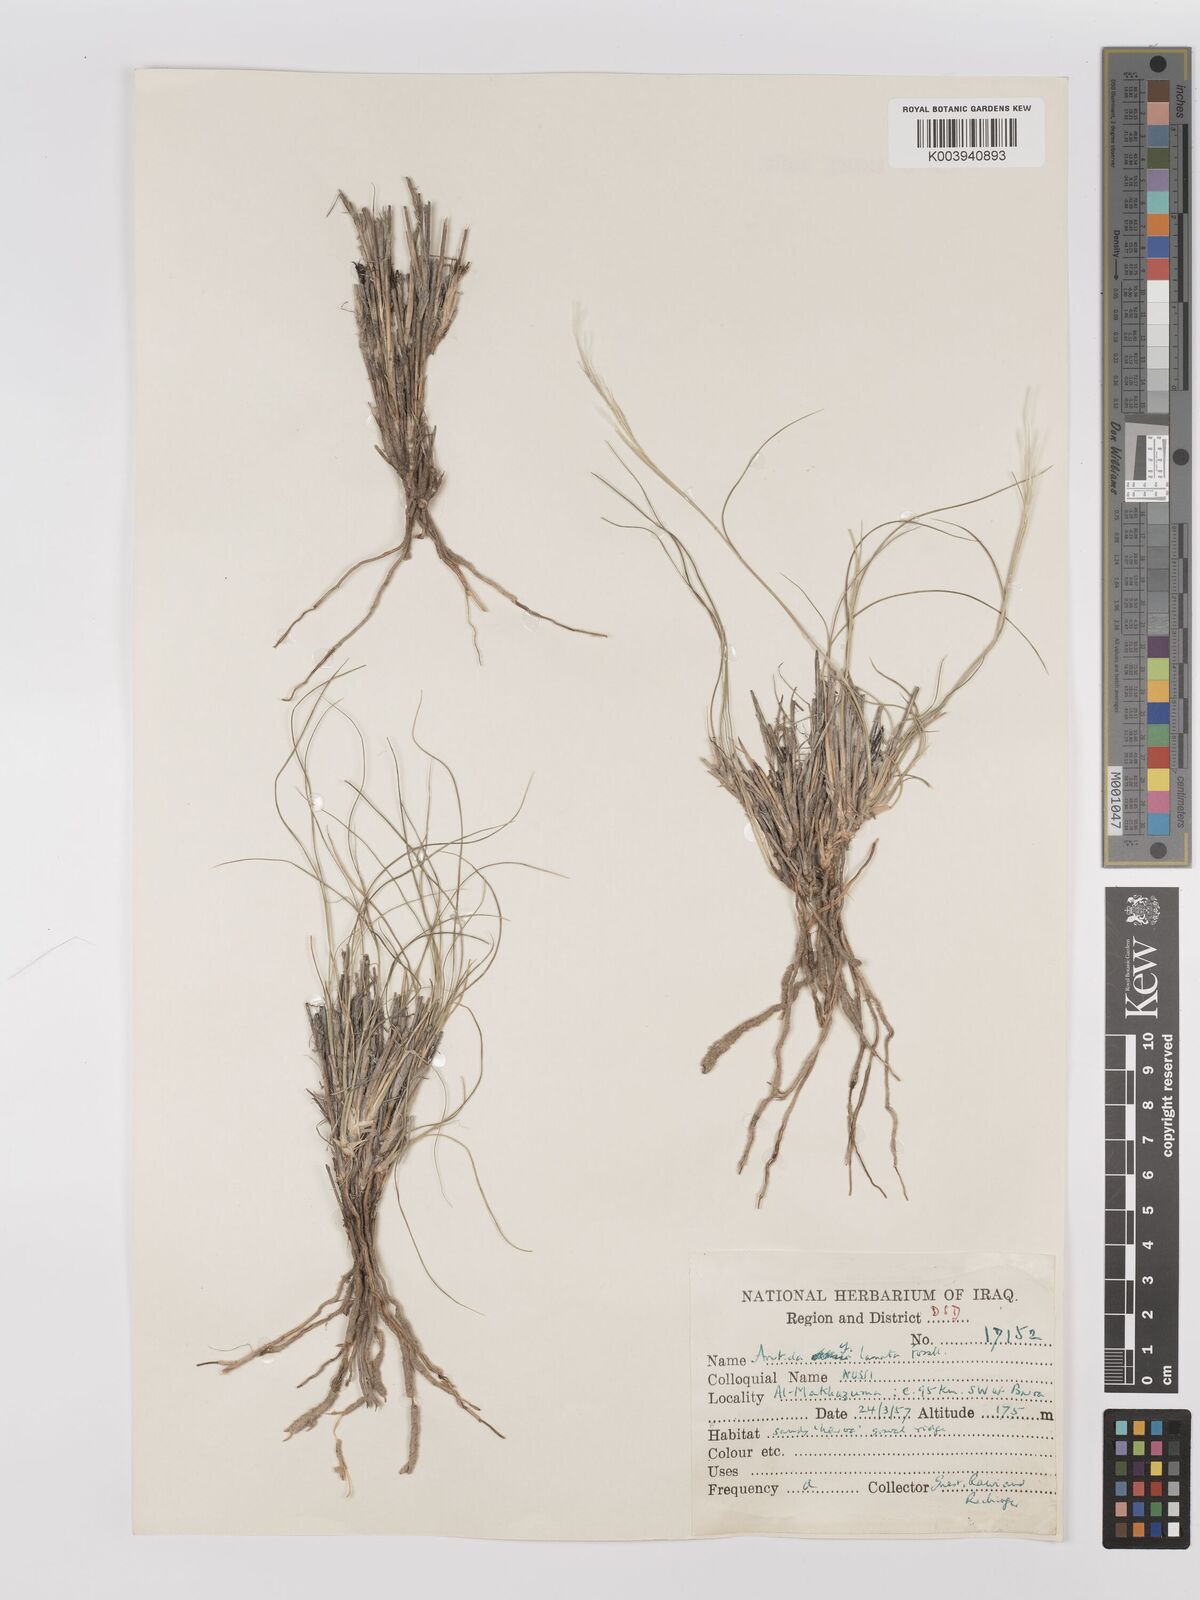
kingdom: Plantae
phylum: Tracheophyta
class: Liliopsida
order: Poales
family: Poaceae
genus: Stipagrostis
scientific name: Stipagrostis
